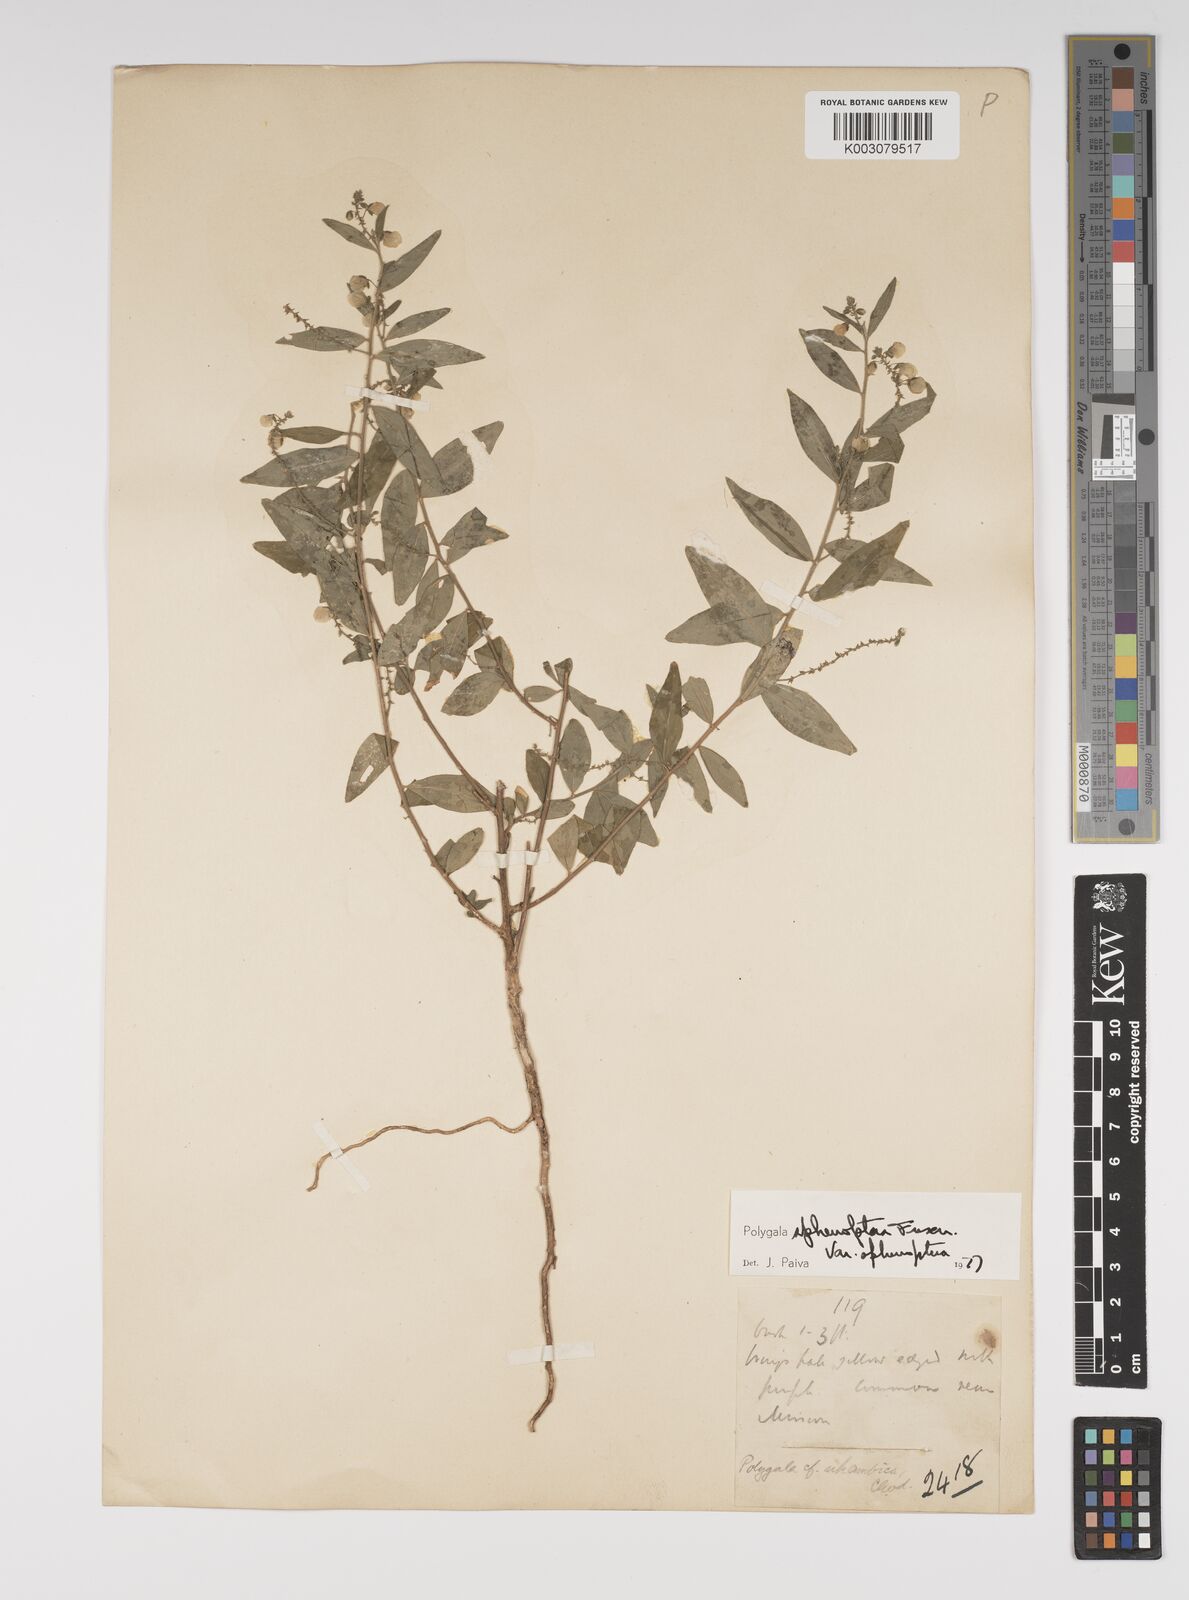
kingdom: Plantae
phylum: Tracheophyta
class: Magnoliopsida
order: Fabales
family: Polygalaceae
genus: Polygala
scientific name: Polygala sphenoptera
